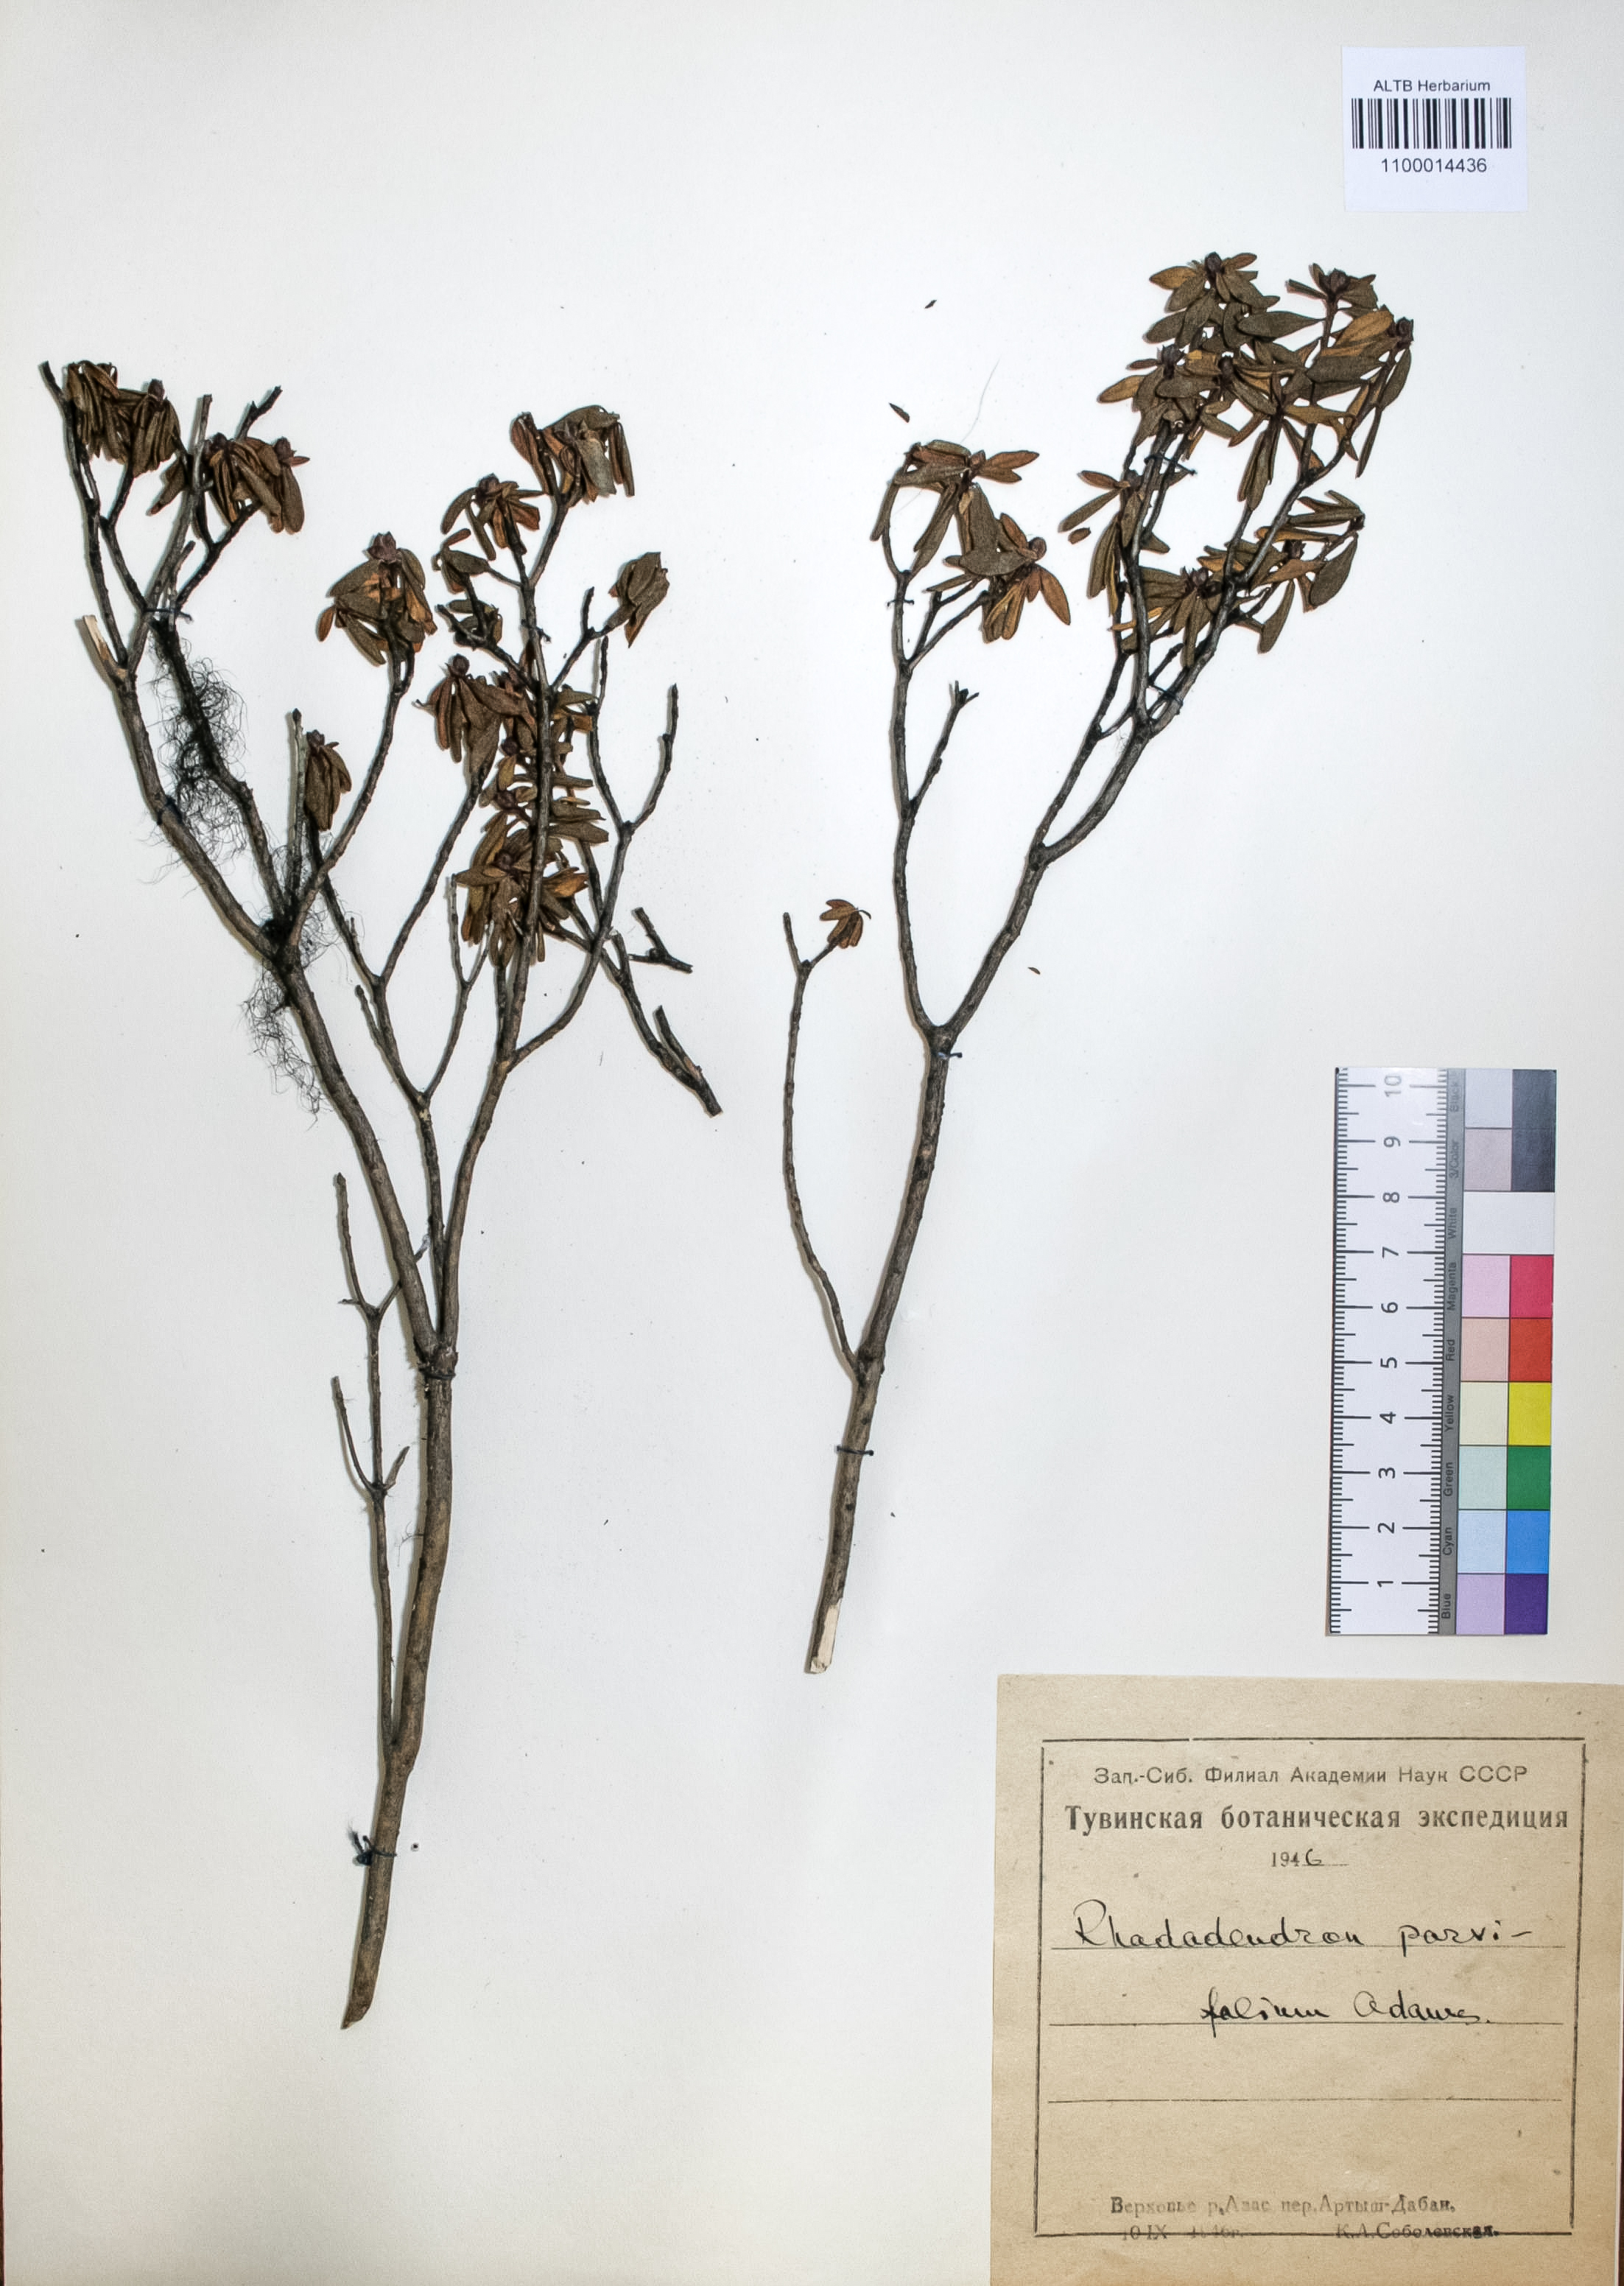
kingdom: Plantae
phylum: Tracheophyta
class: Magnoliopsida
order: Ericales
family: Ericaceae
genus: Rhododendron
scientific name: Rhododendron adamsii
